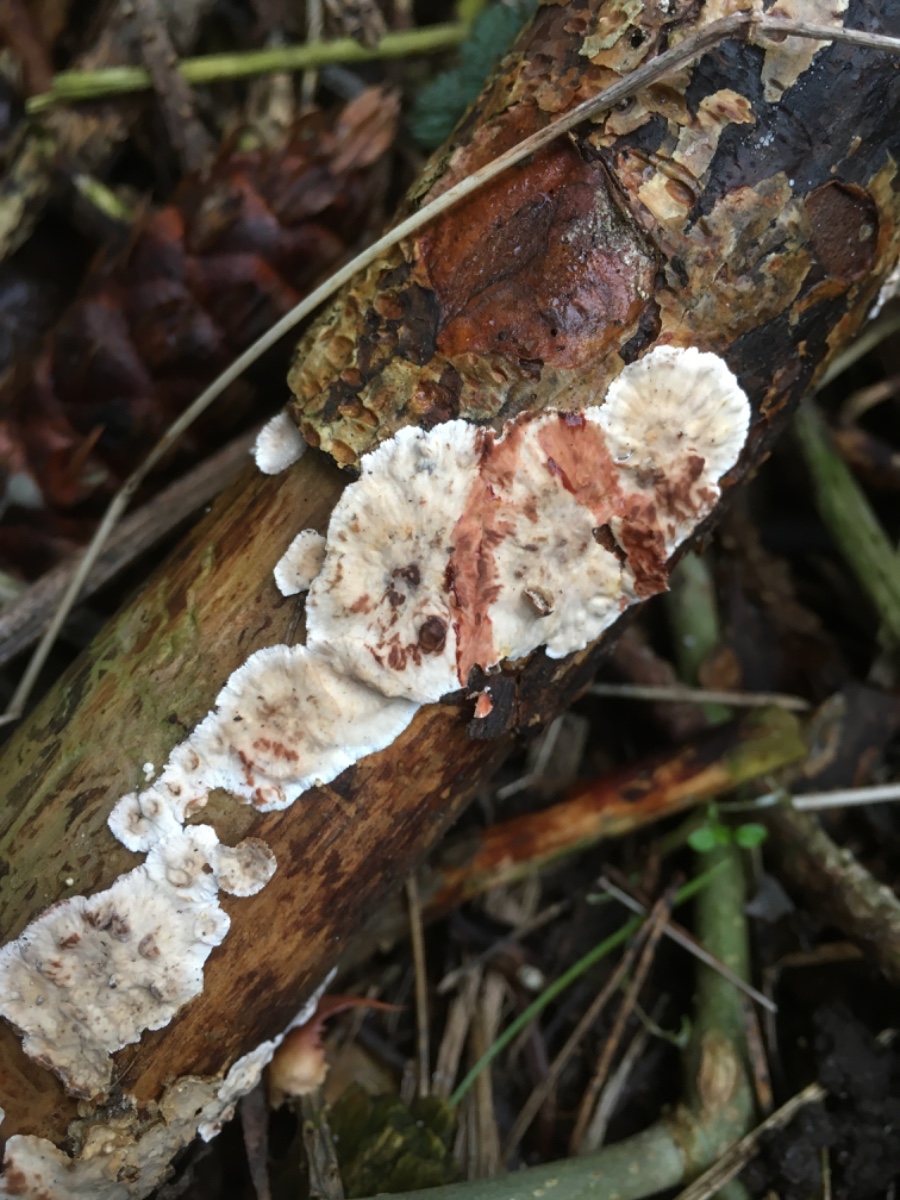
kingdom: Fungi
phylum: Basidiomycota
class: Agaricomycetes
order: Russulales
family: Stereaceae
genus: Stereum
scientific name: Stereum sanguinolentum
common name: blødende lædersvamp
